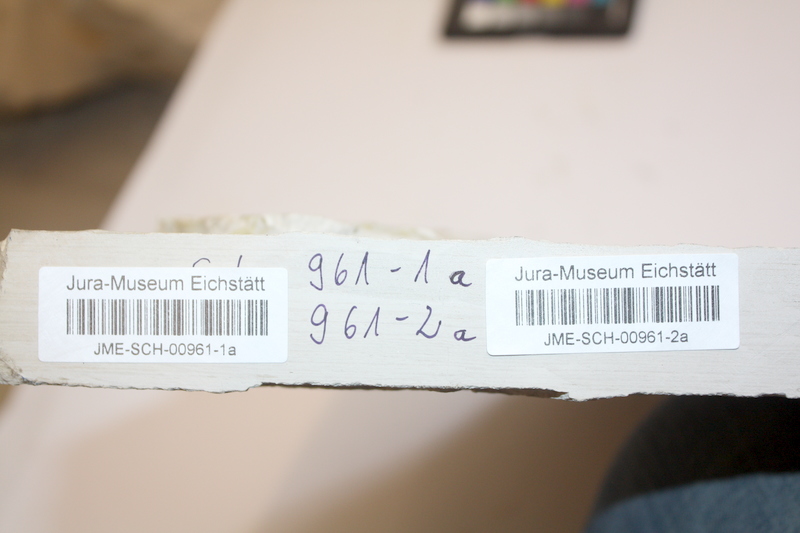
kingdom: Animalia
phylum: Chordata
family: Ascalaboidae
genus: Tharsis
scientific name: Tharsis dubius
